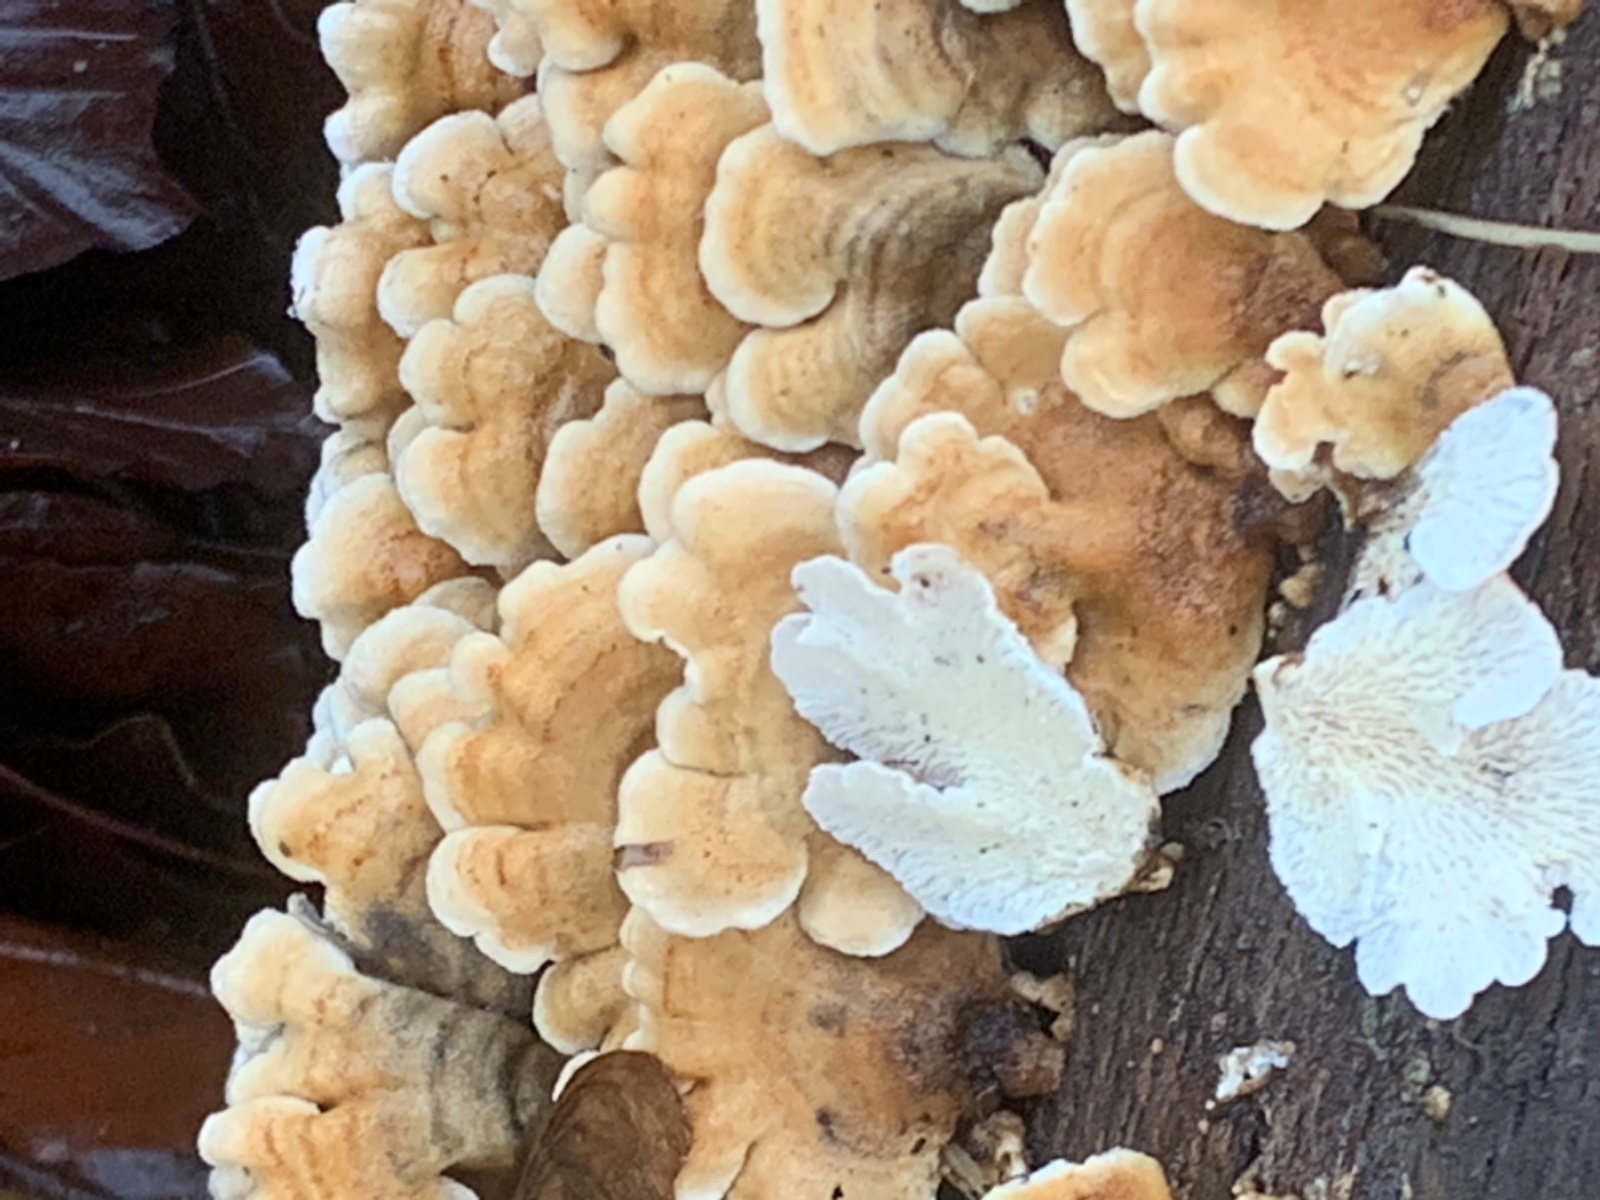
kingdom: Fungi
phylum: Basidiomycota
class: Agaricomycetes
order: Amylocorticiales
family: Amylocorticiaceae
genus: Plicaturopsis
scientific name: Plicaturopsis crispa
